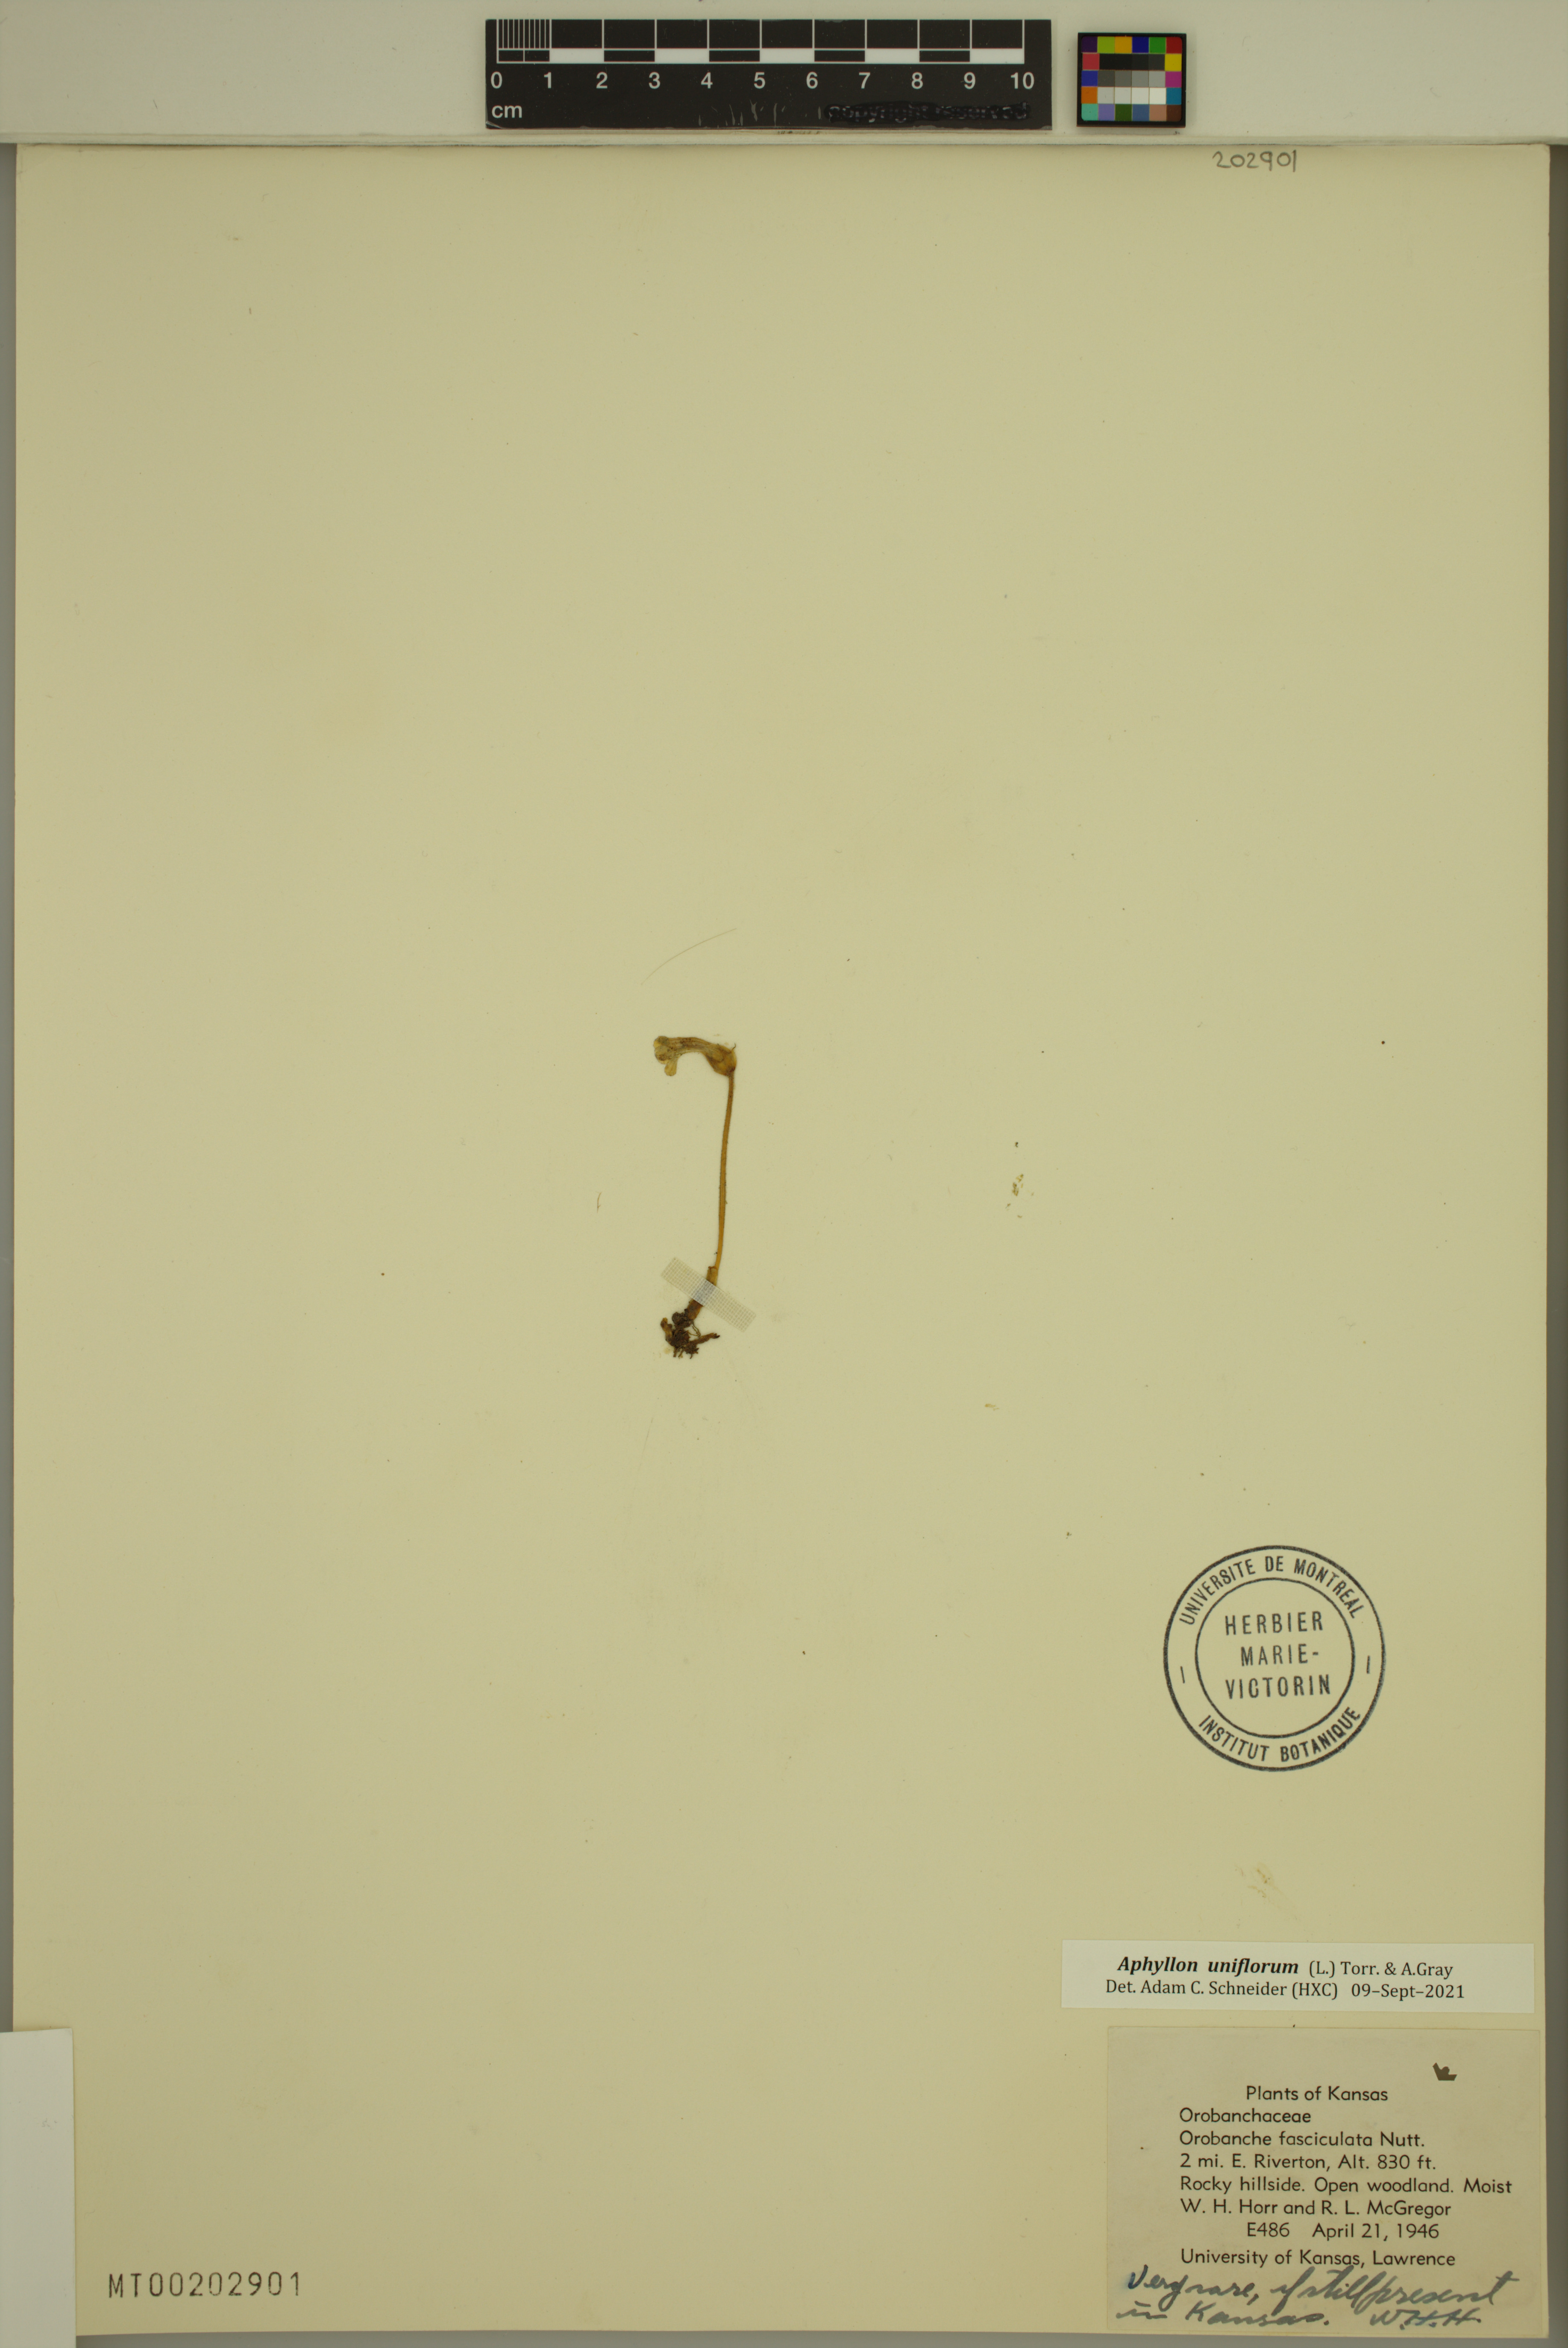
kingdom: Plantae
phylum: Tracheophyta
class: Magnoliopsida
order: Lamiales
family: Orobanchaceae
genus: Aphyllon
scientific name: Aphyllon uniflorum
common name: One-flowered broomrape
